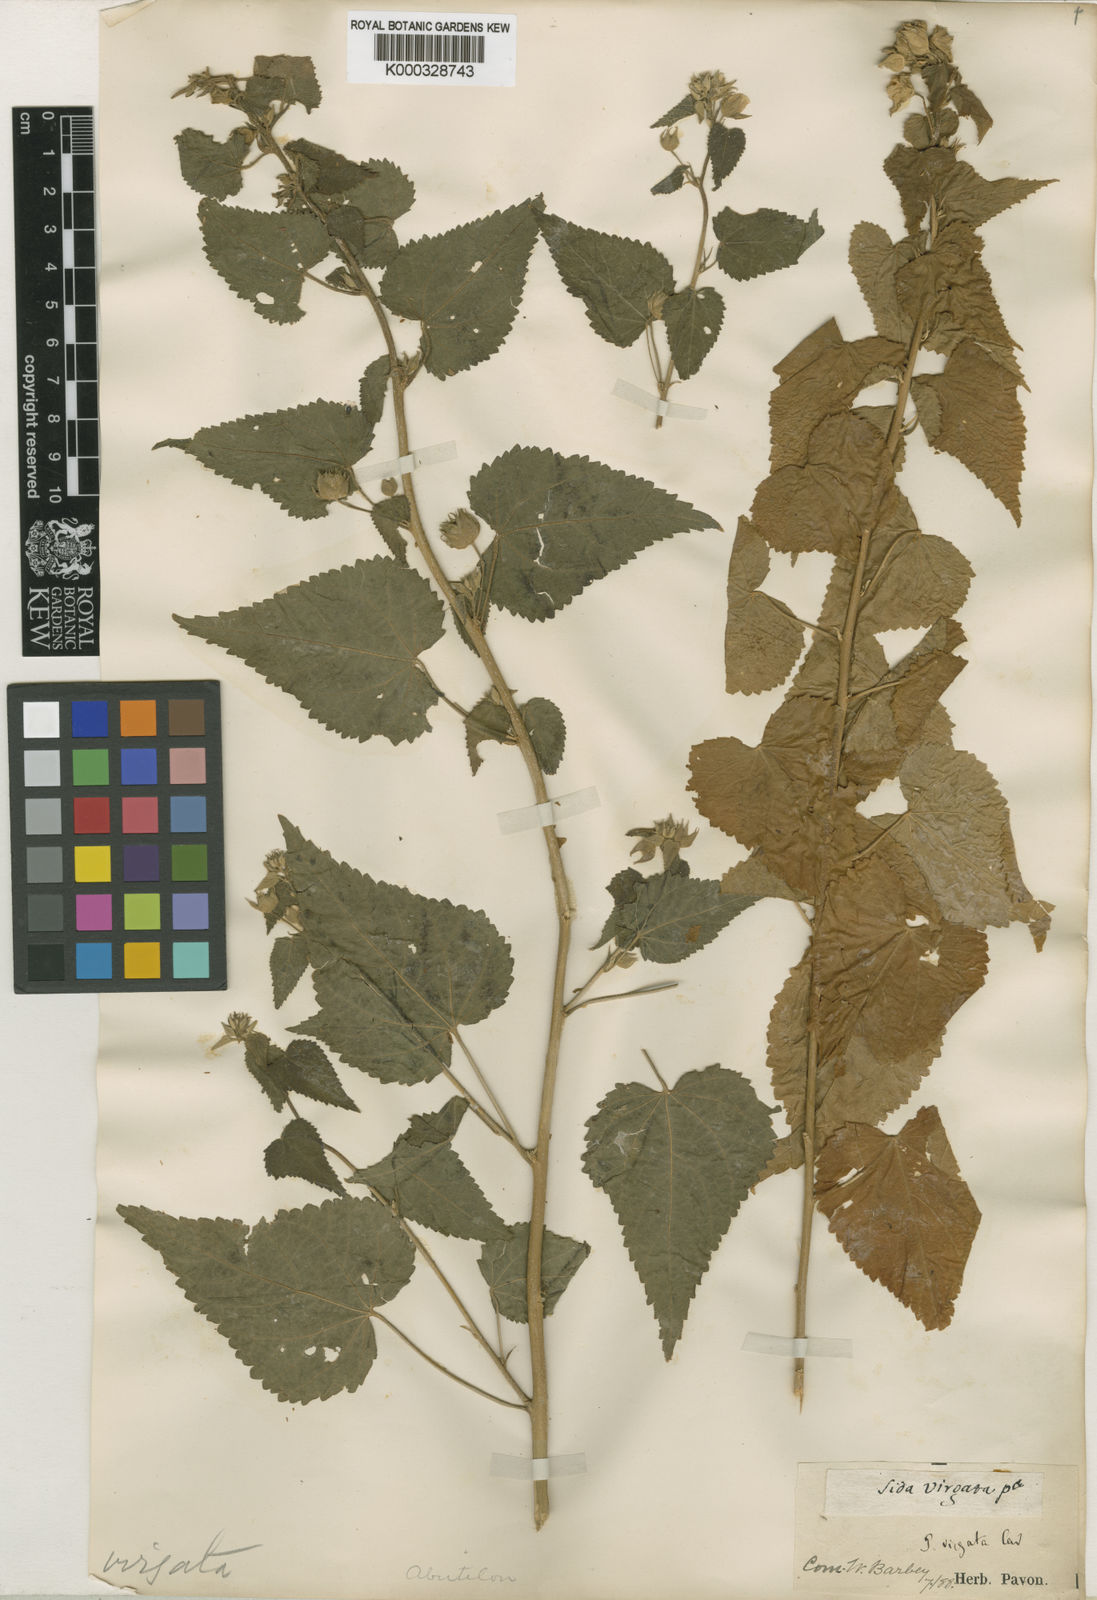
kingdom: Plantae
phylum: Tracheophyta
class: Magnoliopsida
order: Malvales
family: Malvaceae
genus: Pseudabutilon
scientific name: Pseudabutilon virgatum
